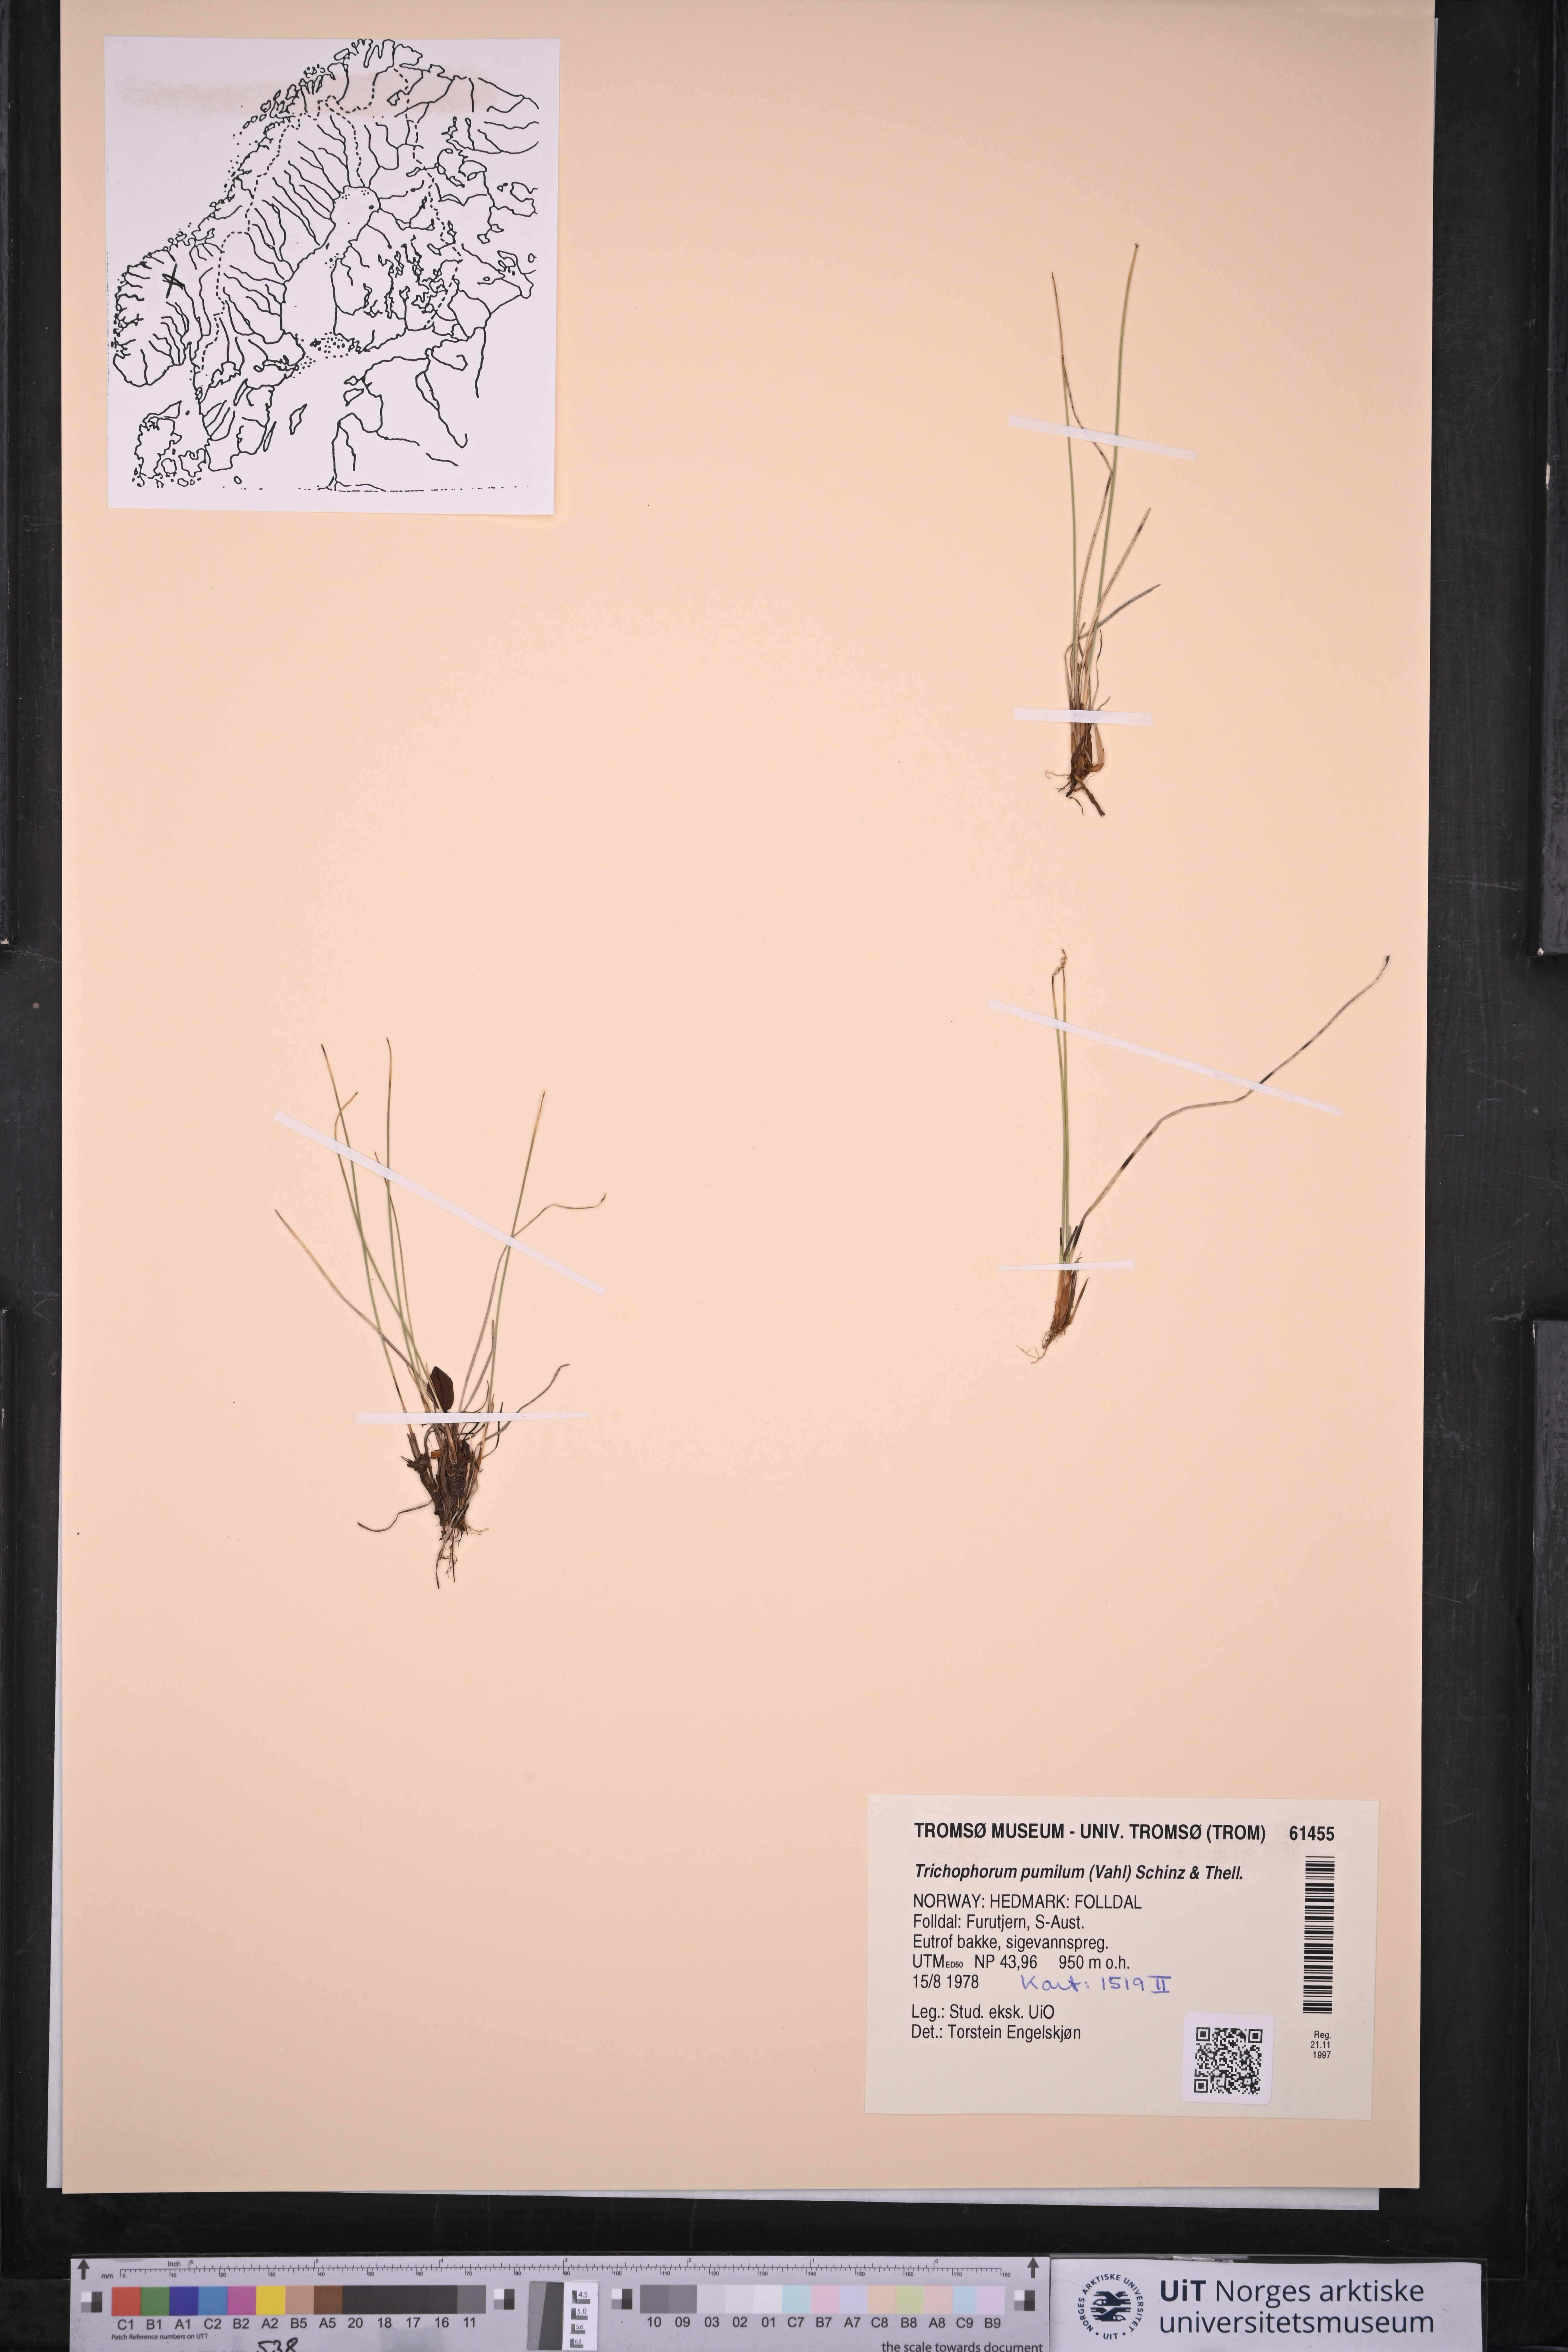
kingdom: Plantae
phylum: Tracheophyta
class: Liliopsida
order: Poales
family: Cyperaceae
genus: Trichophorum
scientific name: Trichophorum pumilum
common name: Rolland's bulrush
